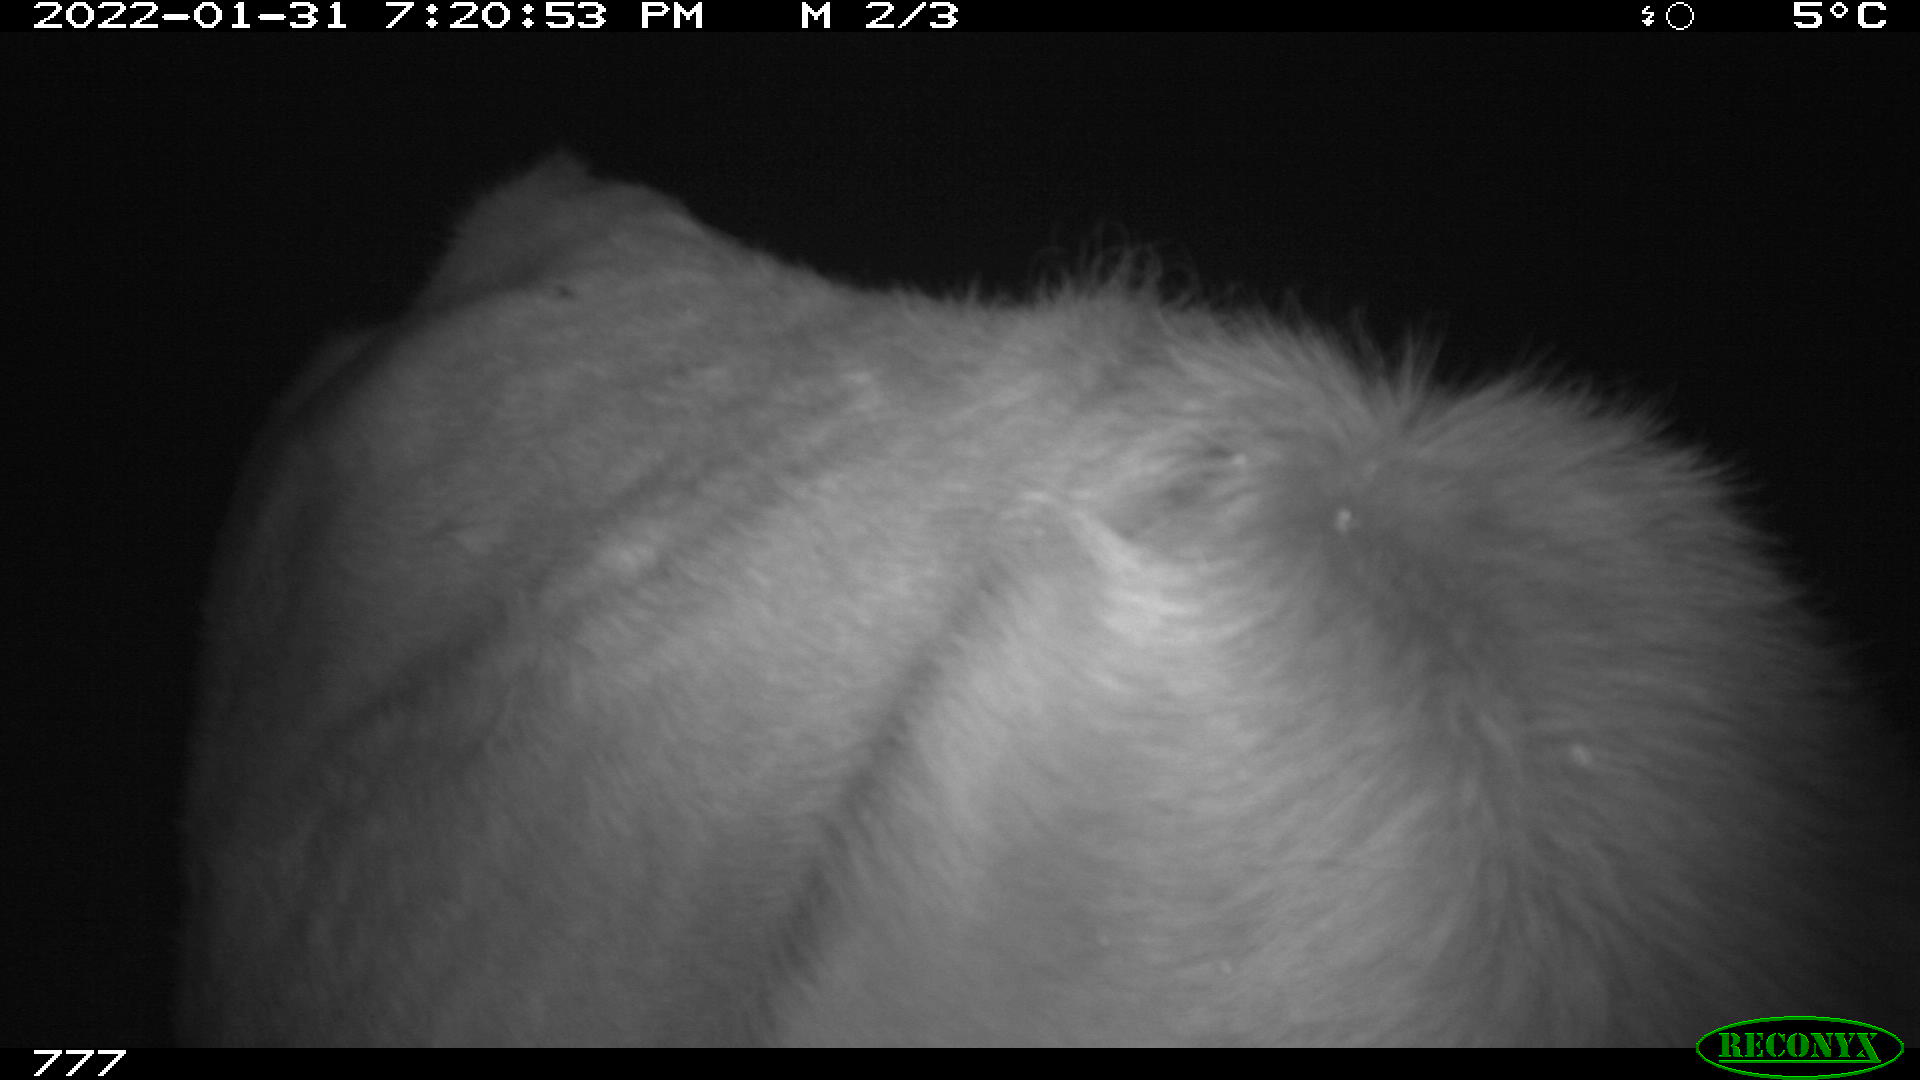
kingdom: Animalia
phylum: Chordata
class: Mammalia
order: Artiodactyla
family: Bovidae
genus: Bos
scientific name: Bos taurus
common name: Domesticated cattle
